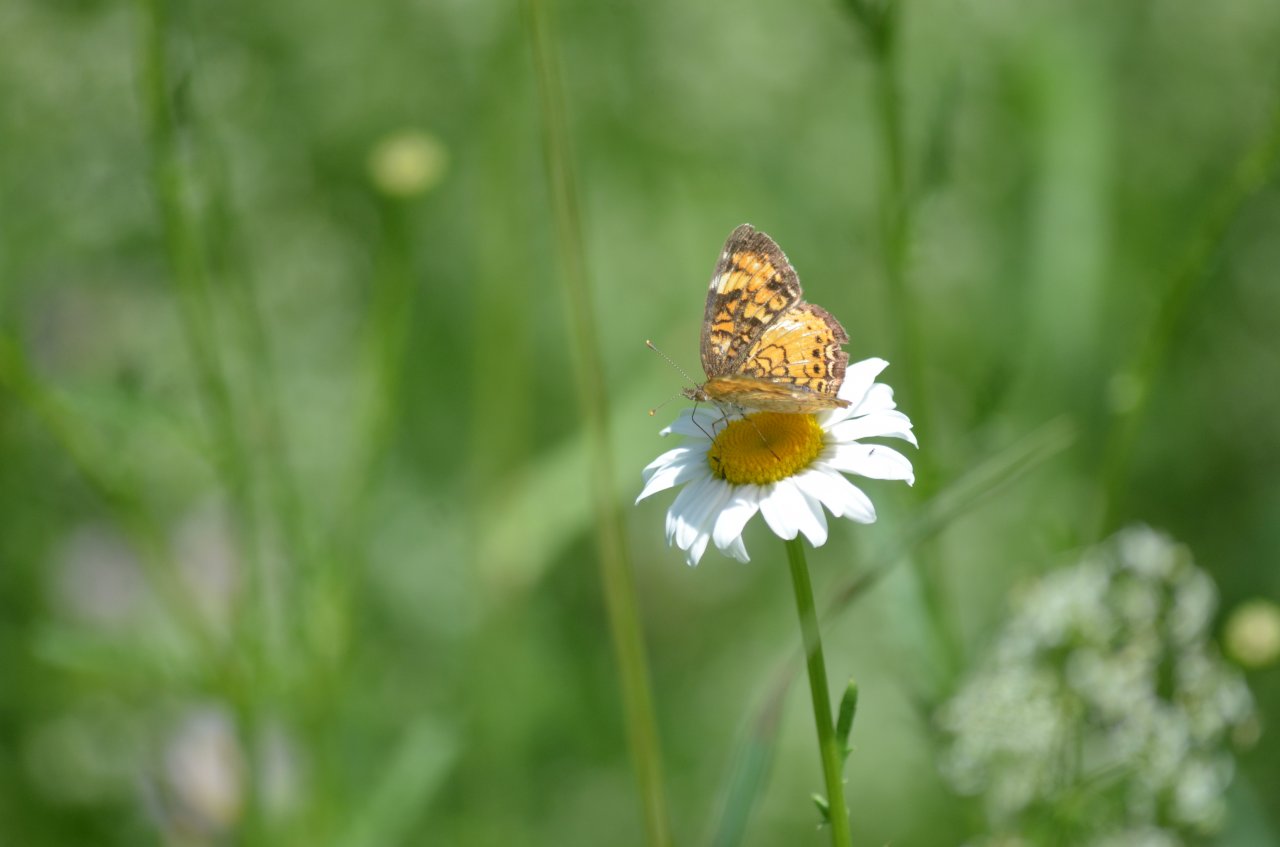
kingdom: Animalia
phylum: Arthropoda
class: Insecta
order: Lepidoptera
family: Nymphalidae
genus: Phyciodes
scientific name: Phyciodes tharos
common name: Northern Crescent
